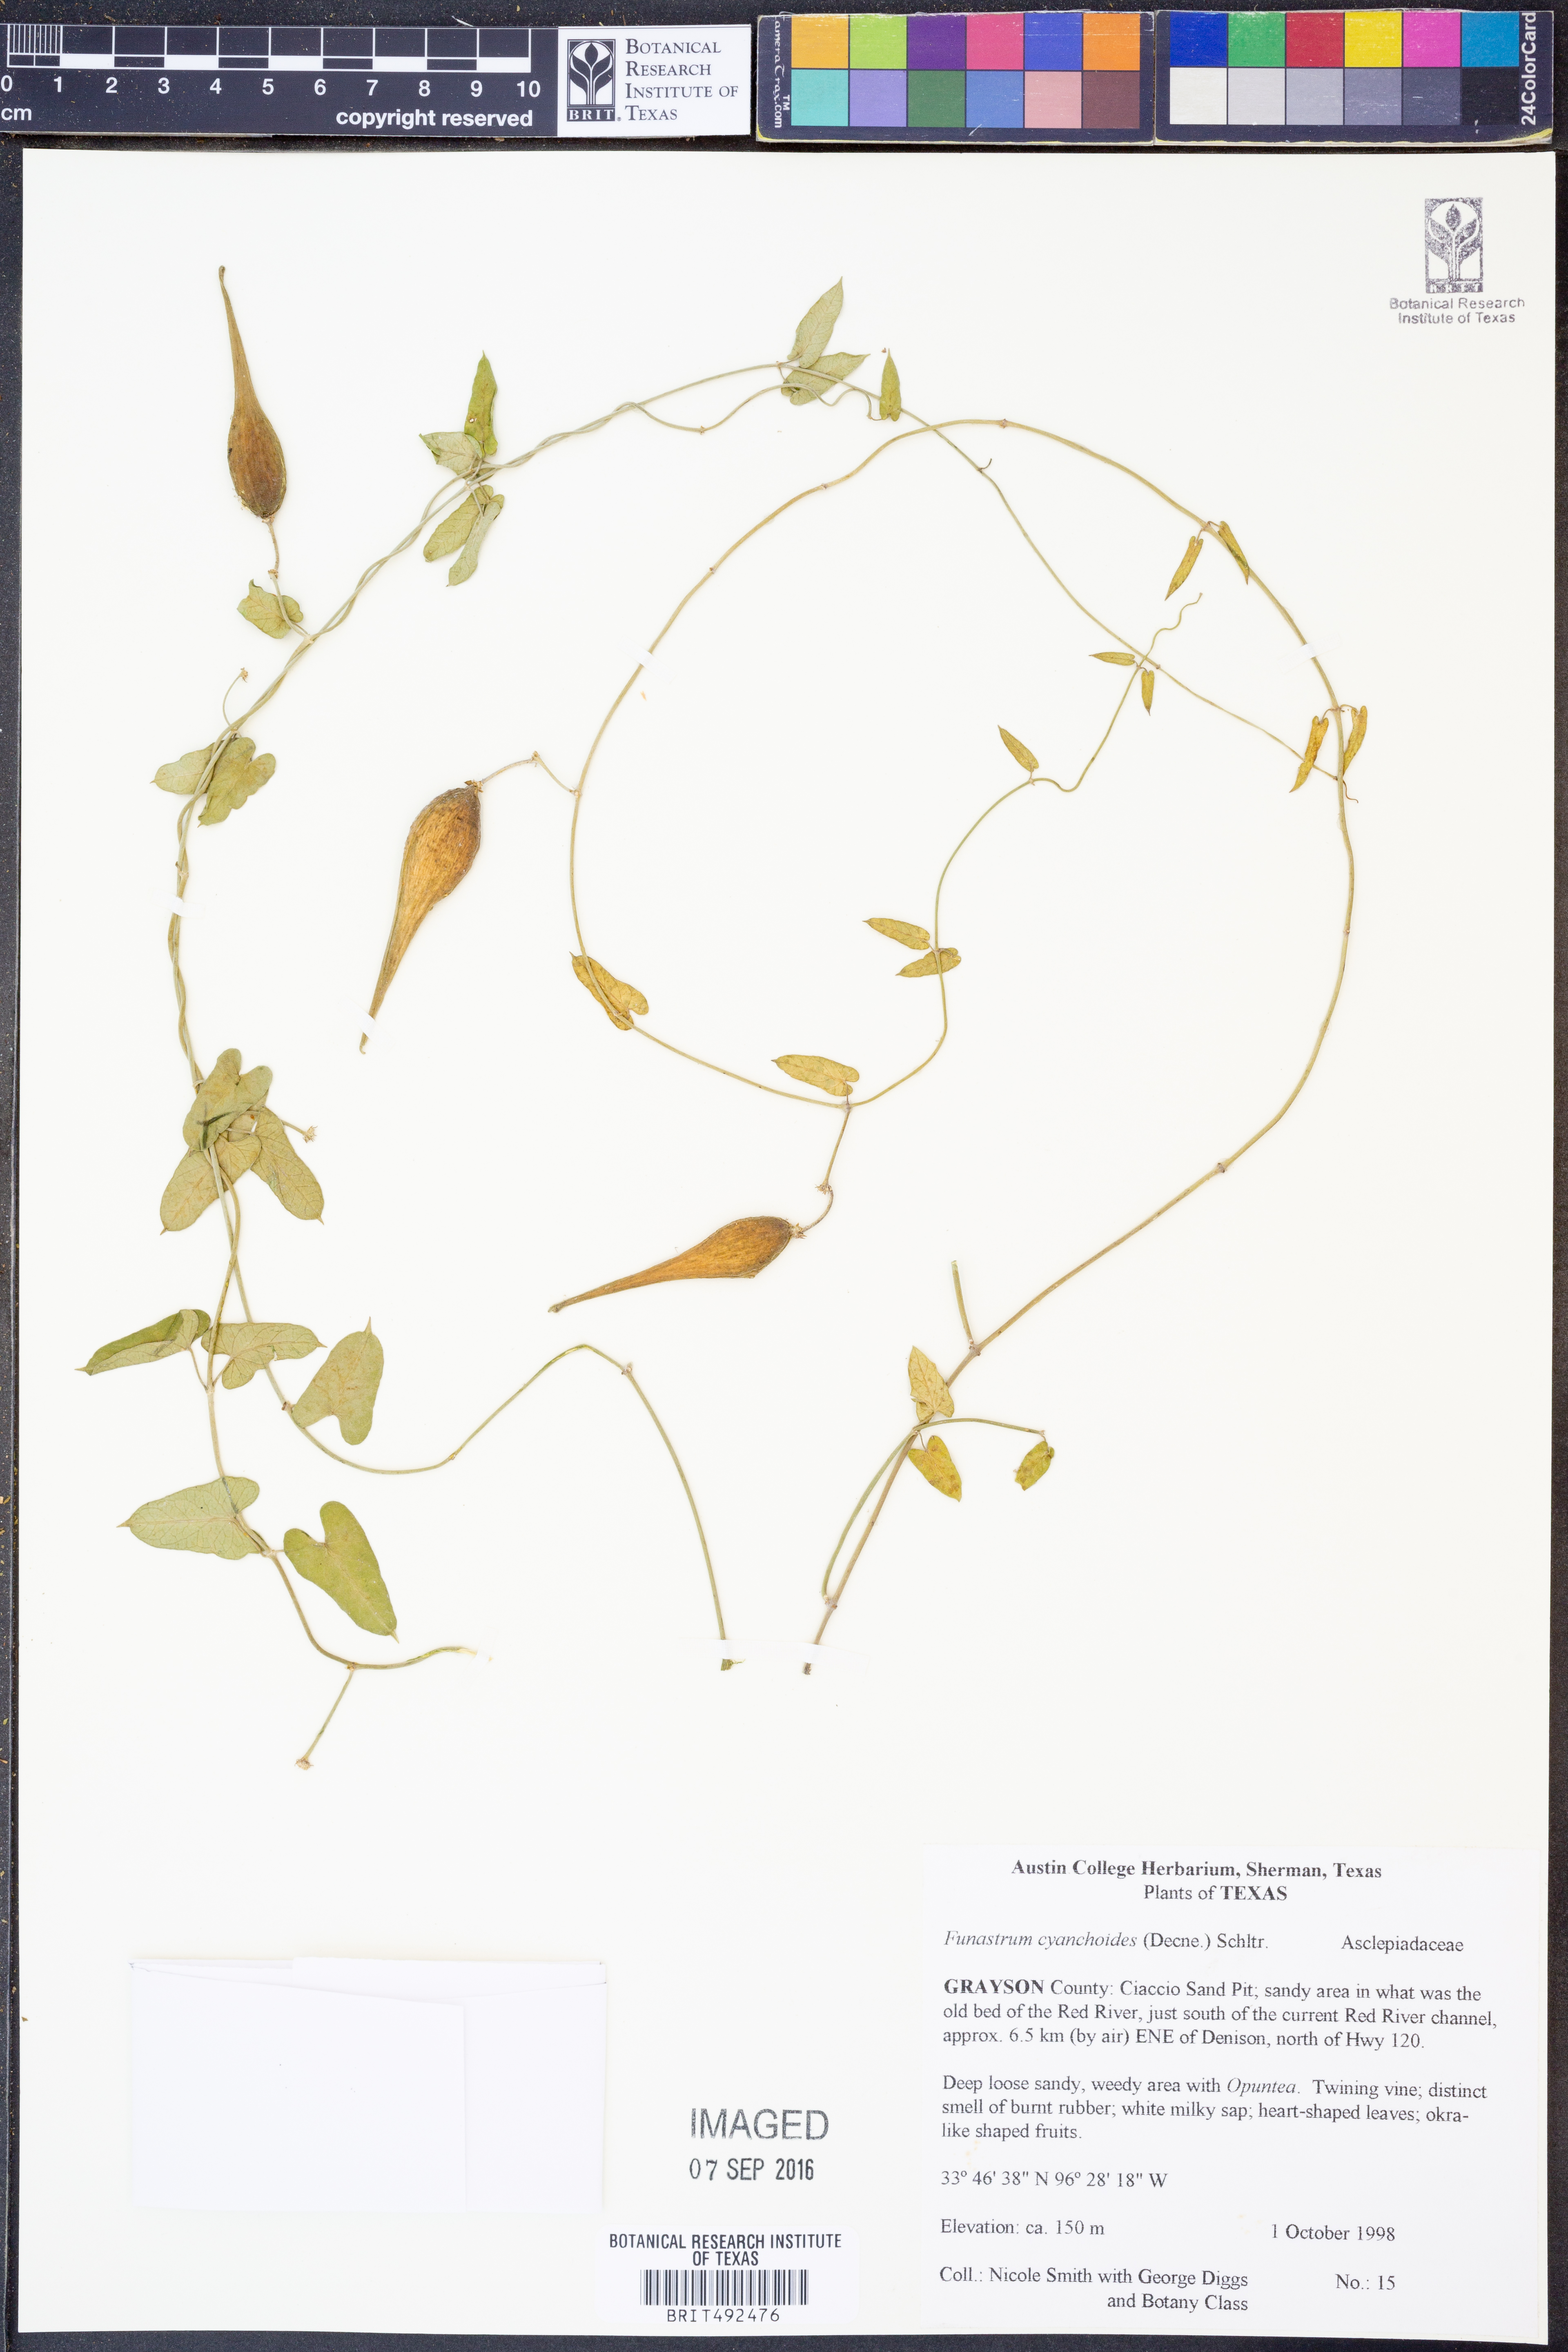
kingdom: Plantae
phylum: Tracheophyta
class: Magnoliopsida
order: Gentianales
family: Apocynaceae
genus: Funastrum
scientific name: Funastrum cynanchoides
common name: Climbing-milkweed
